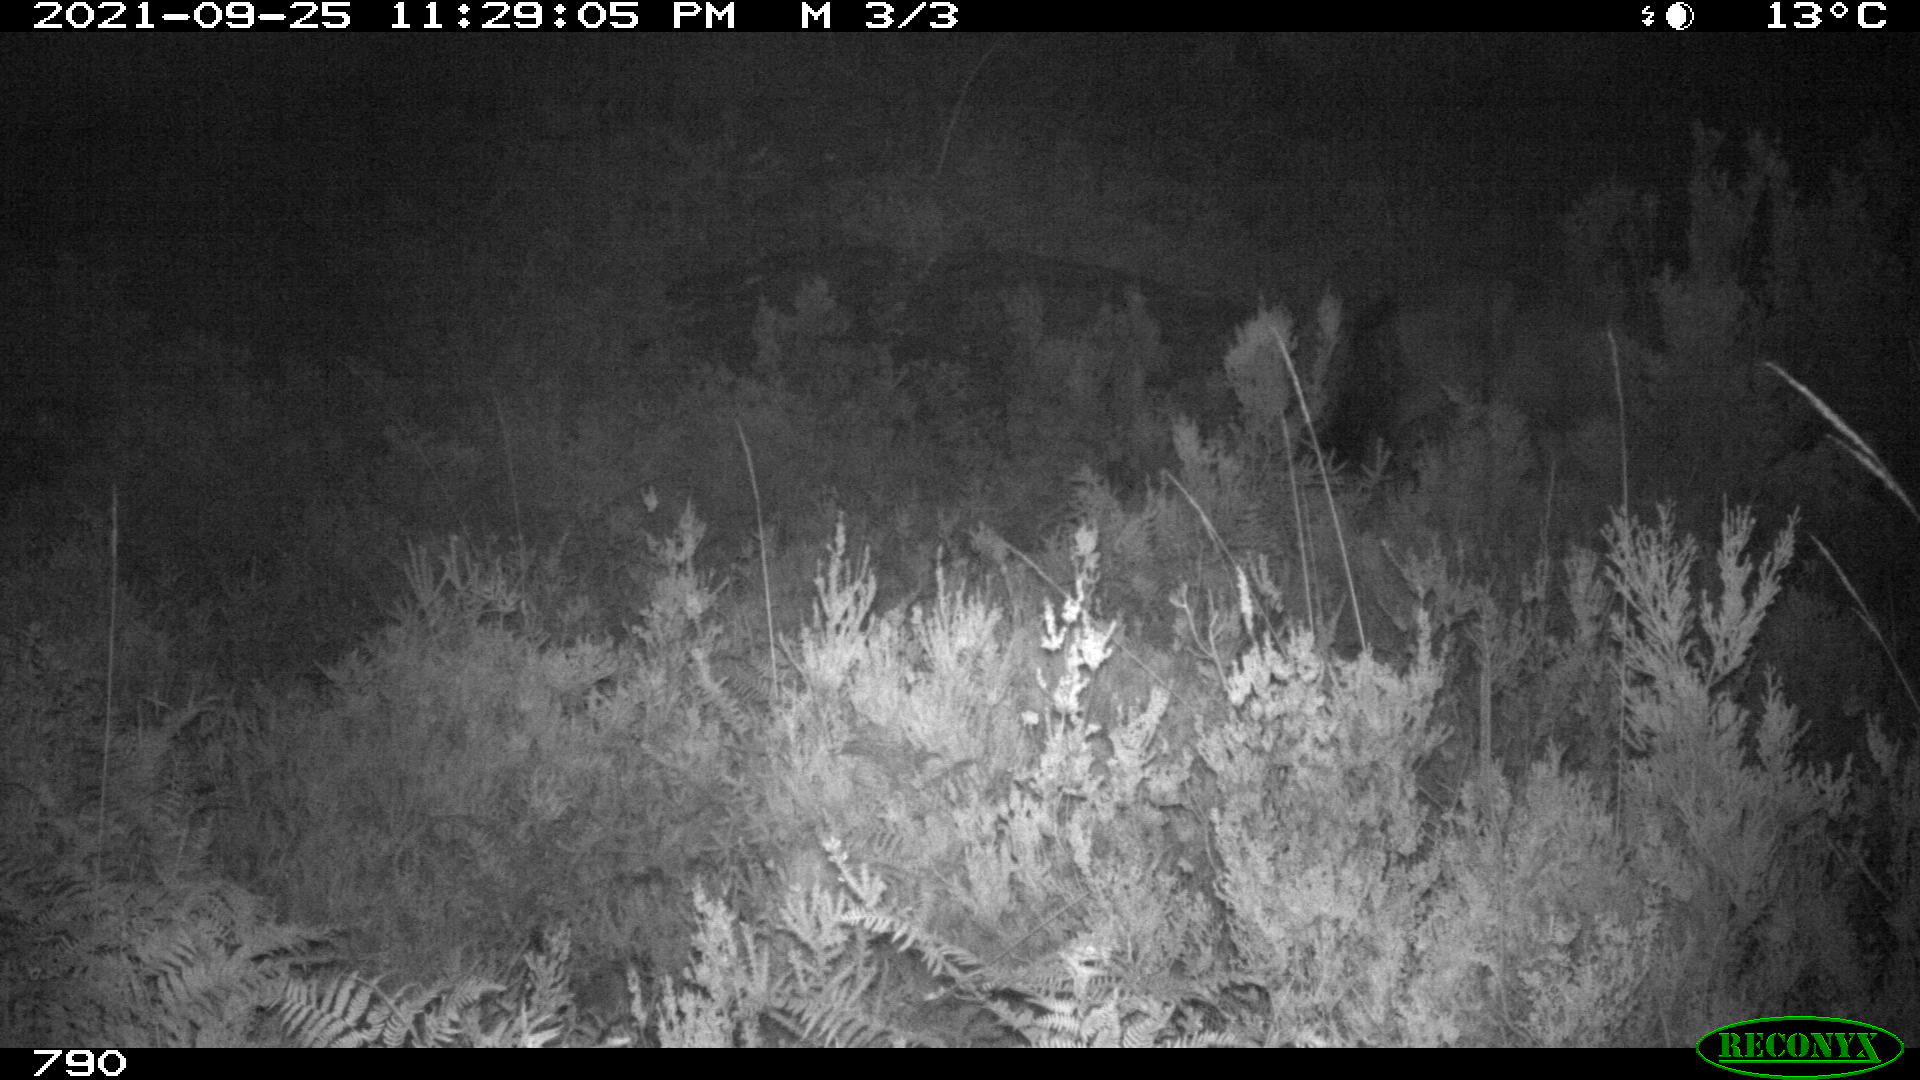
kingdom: Animalia
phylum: Chordata
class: Mammalia
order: Perissodactyla
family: Equidae
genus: Equus
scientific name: Equus caballus
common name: Horse
